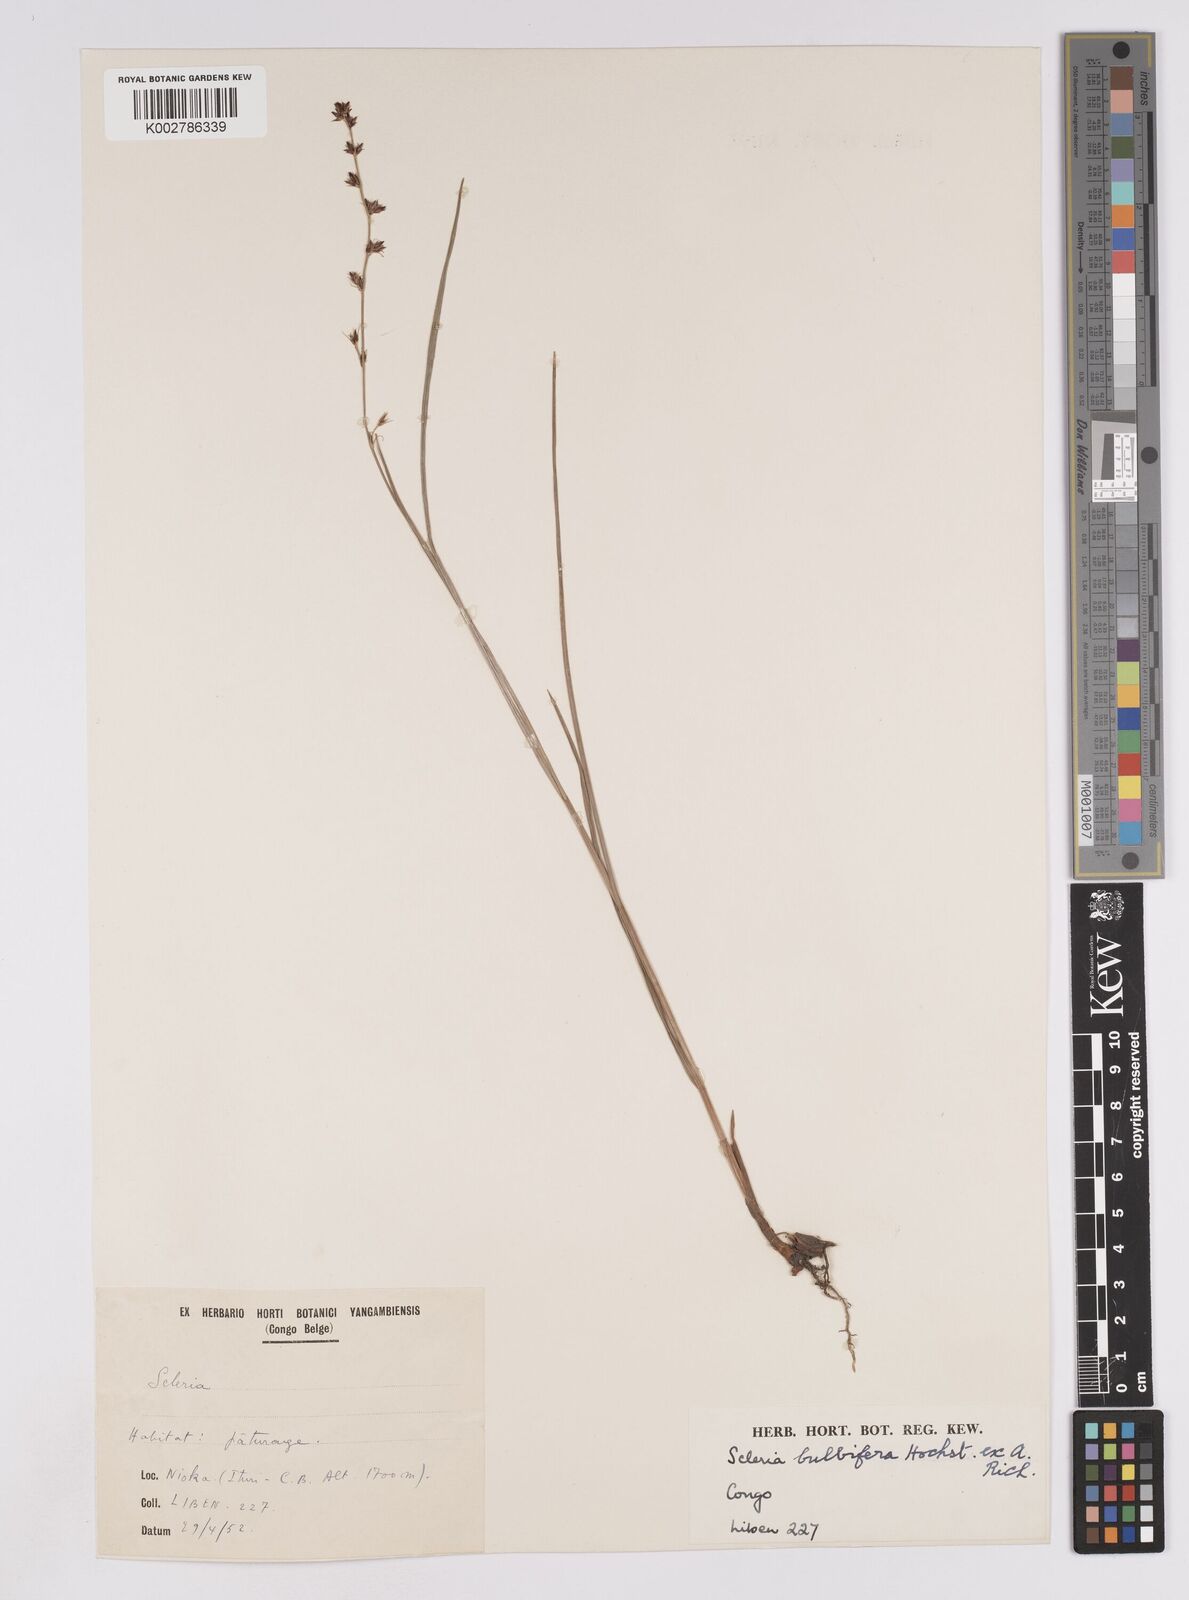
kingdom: Plantae
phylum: Tracheophyta
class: Liliopsida
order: Poales
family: Cyperaceae
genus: Scleria
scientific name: Scleria bulbifera
